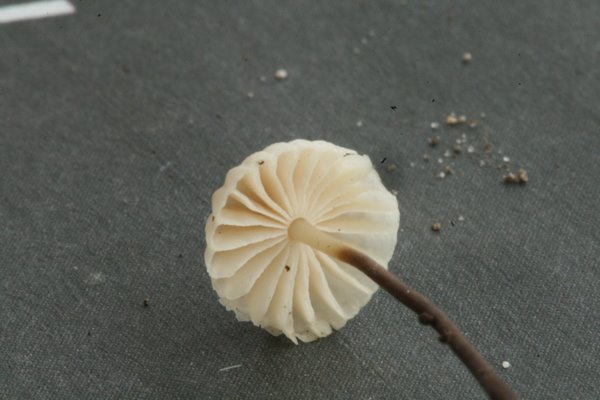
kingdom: Fungi
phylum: Basidiomycota
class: Agaricomycetes
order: Agaricales
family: Marasmiaceae
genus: Marasmius
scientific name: Marasmius rotula
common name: hjul-bruskhat
